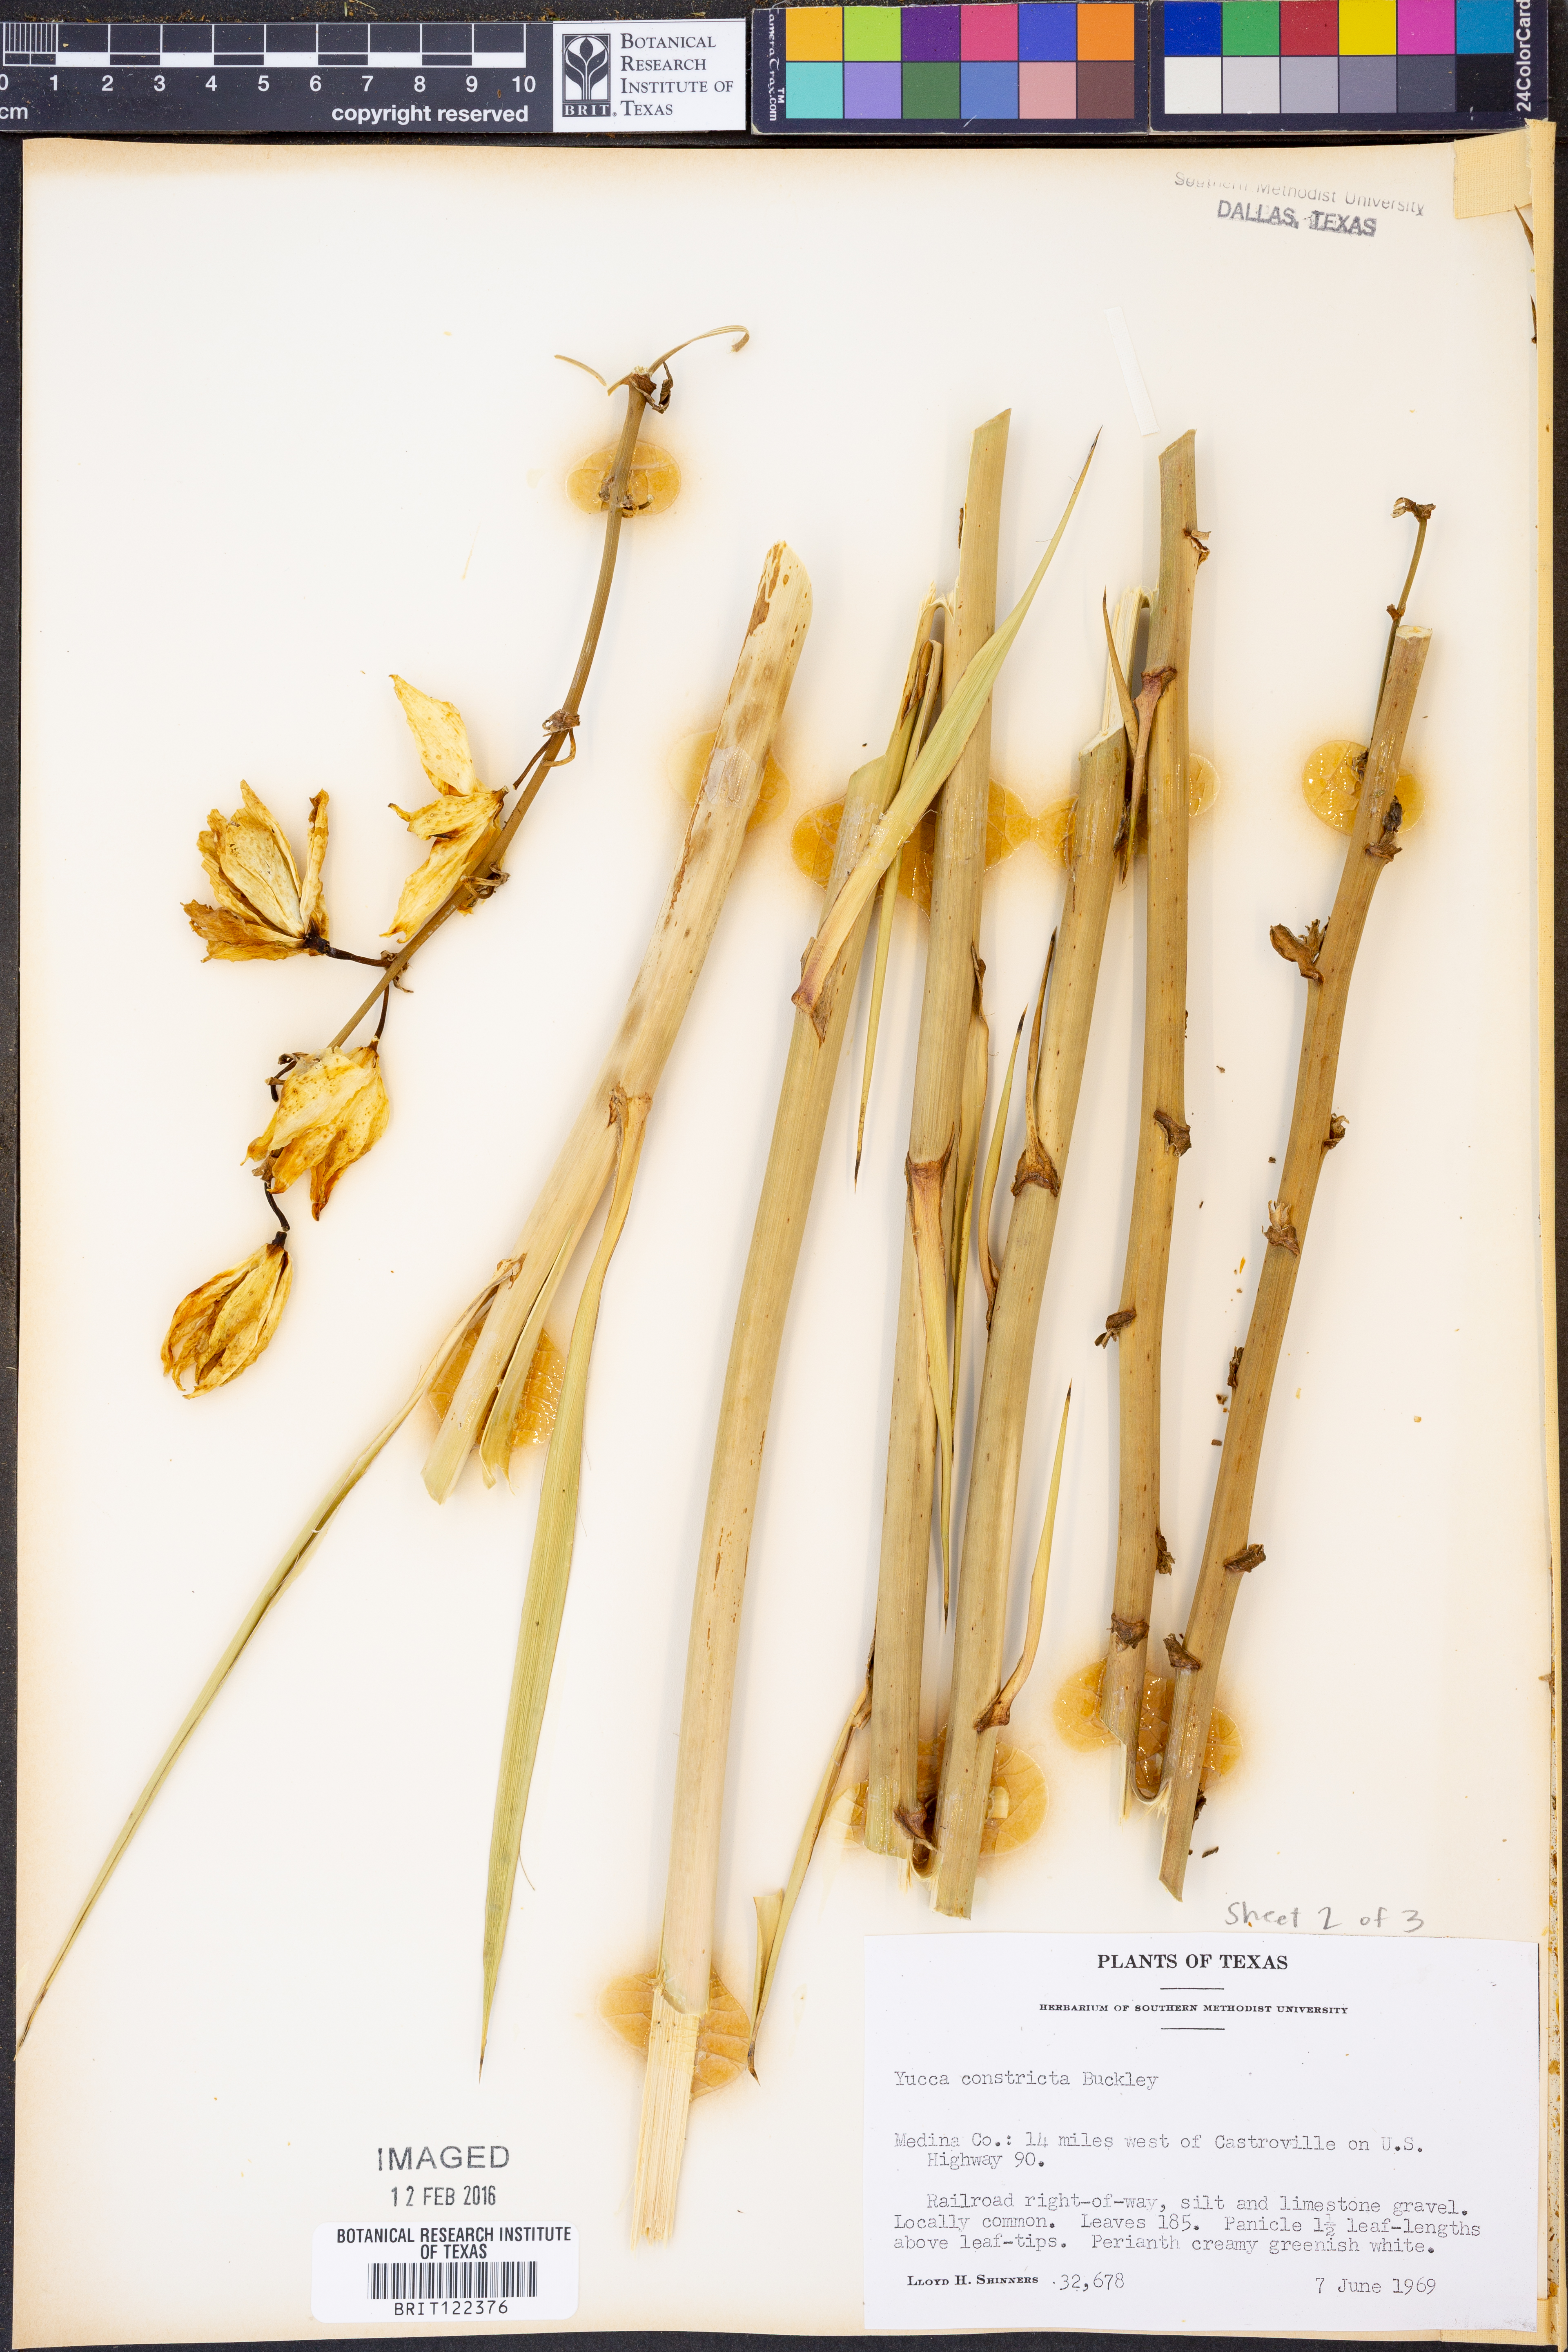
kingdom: Plantae
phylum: Tracheophyta
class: Liliopsida
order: Asparagales
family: Asparagaceae
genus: Yucca
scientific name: Yucca constricta
